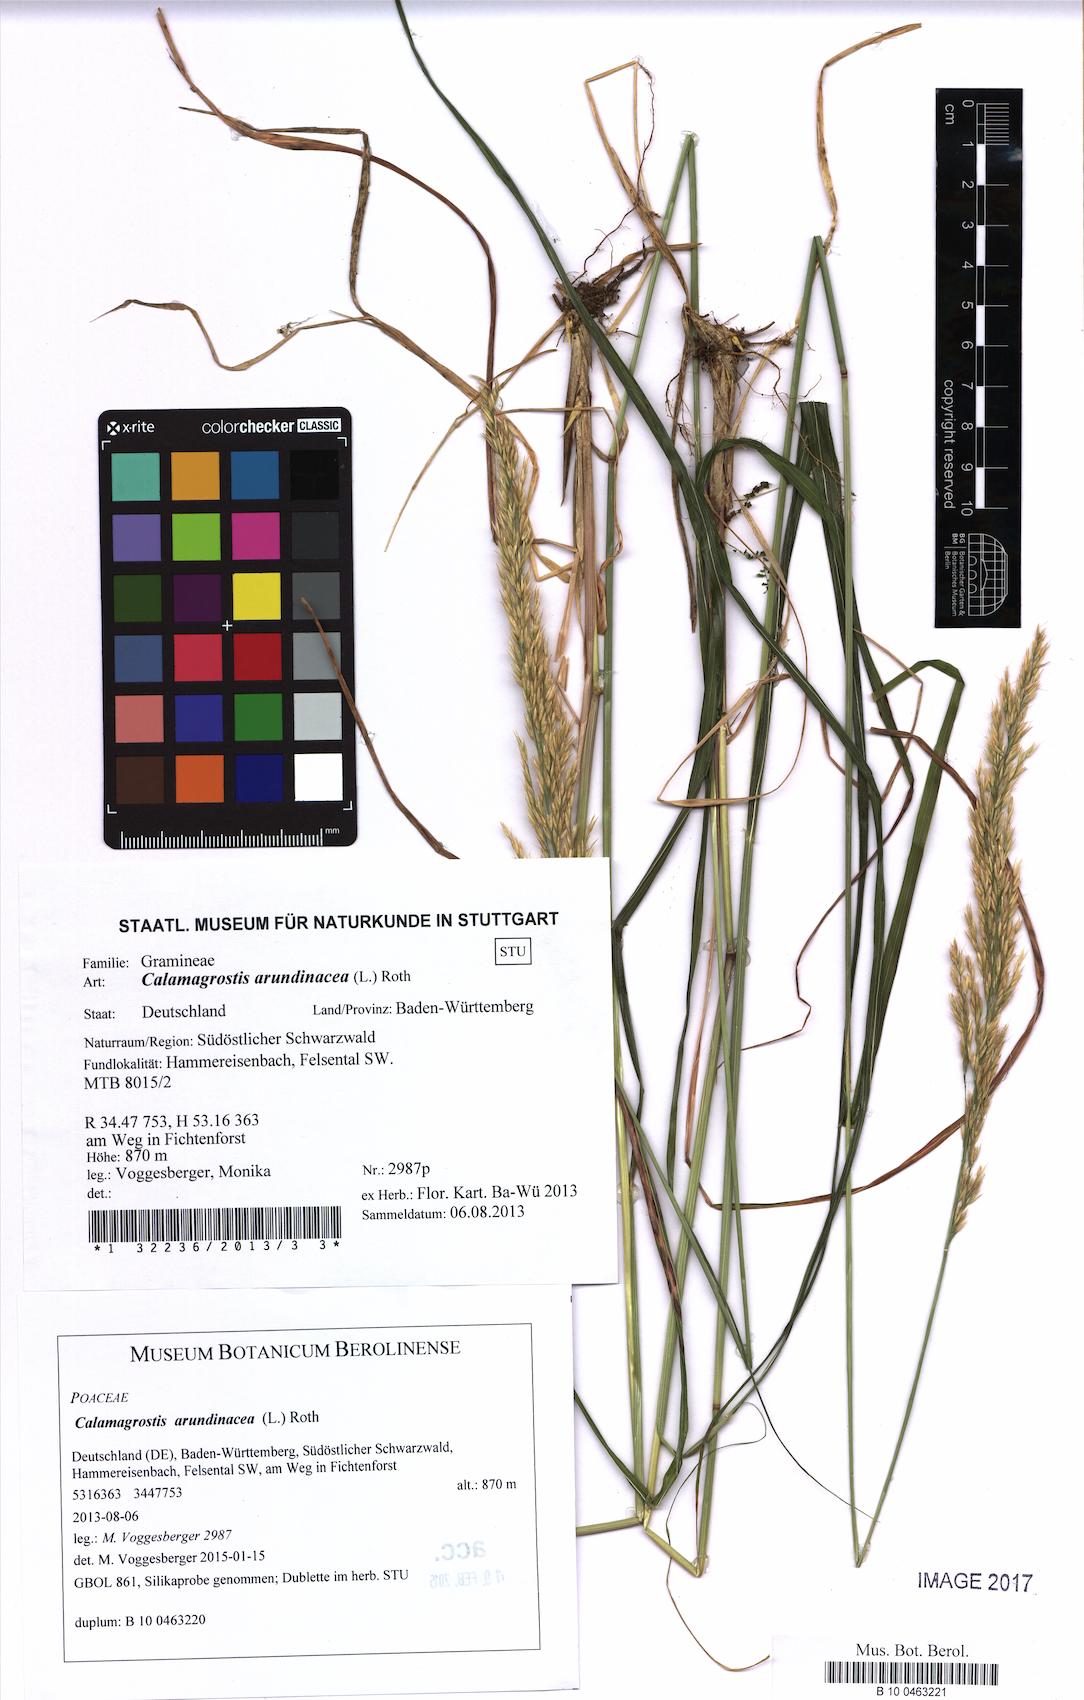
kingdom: Plantae
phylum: Tracheophyta
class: Liliopsida
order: Poales
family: Poaceae
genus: Calamagrostis
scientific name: Calamagrostis arundinacea
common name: Metskastik
